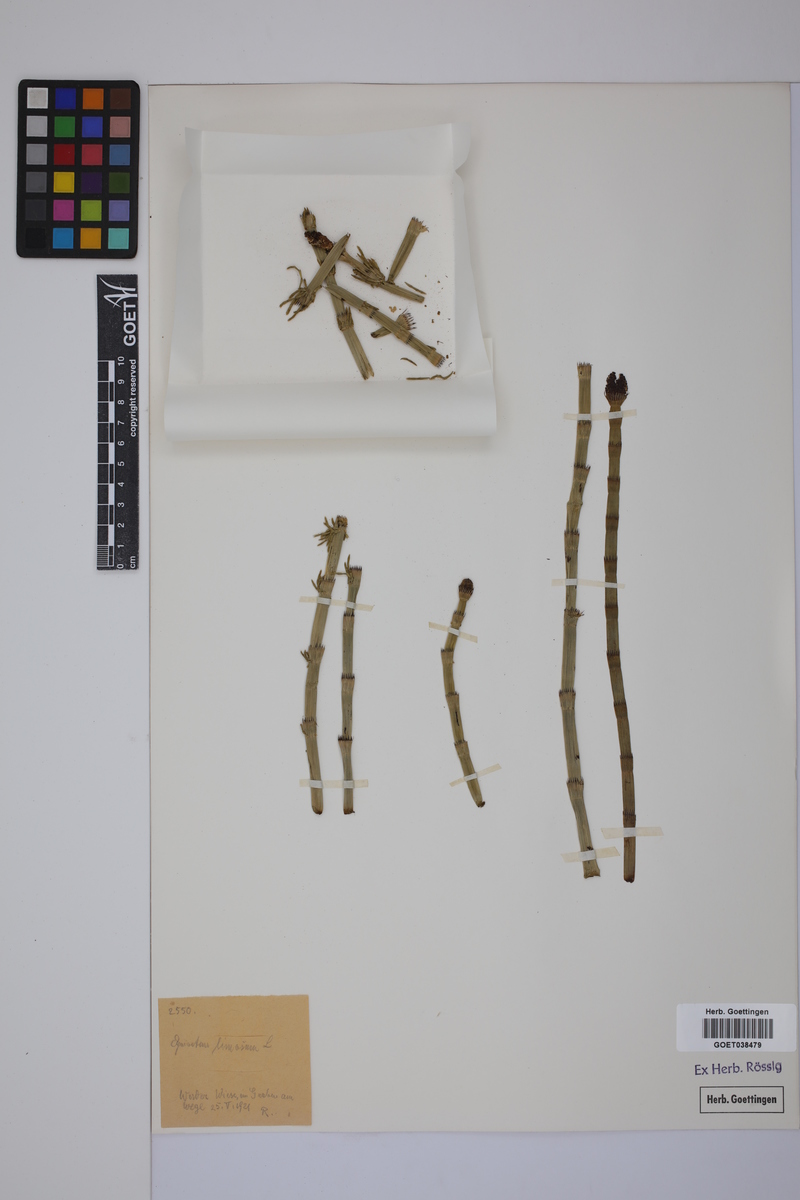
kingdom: Plantae
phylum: Tracheophyta
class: Polypodiopsida
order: Equisetales
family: Equisetaceae
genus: Equisetum
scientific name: Equisetum fluviatile
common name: Water horsetail
